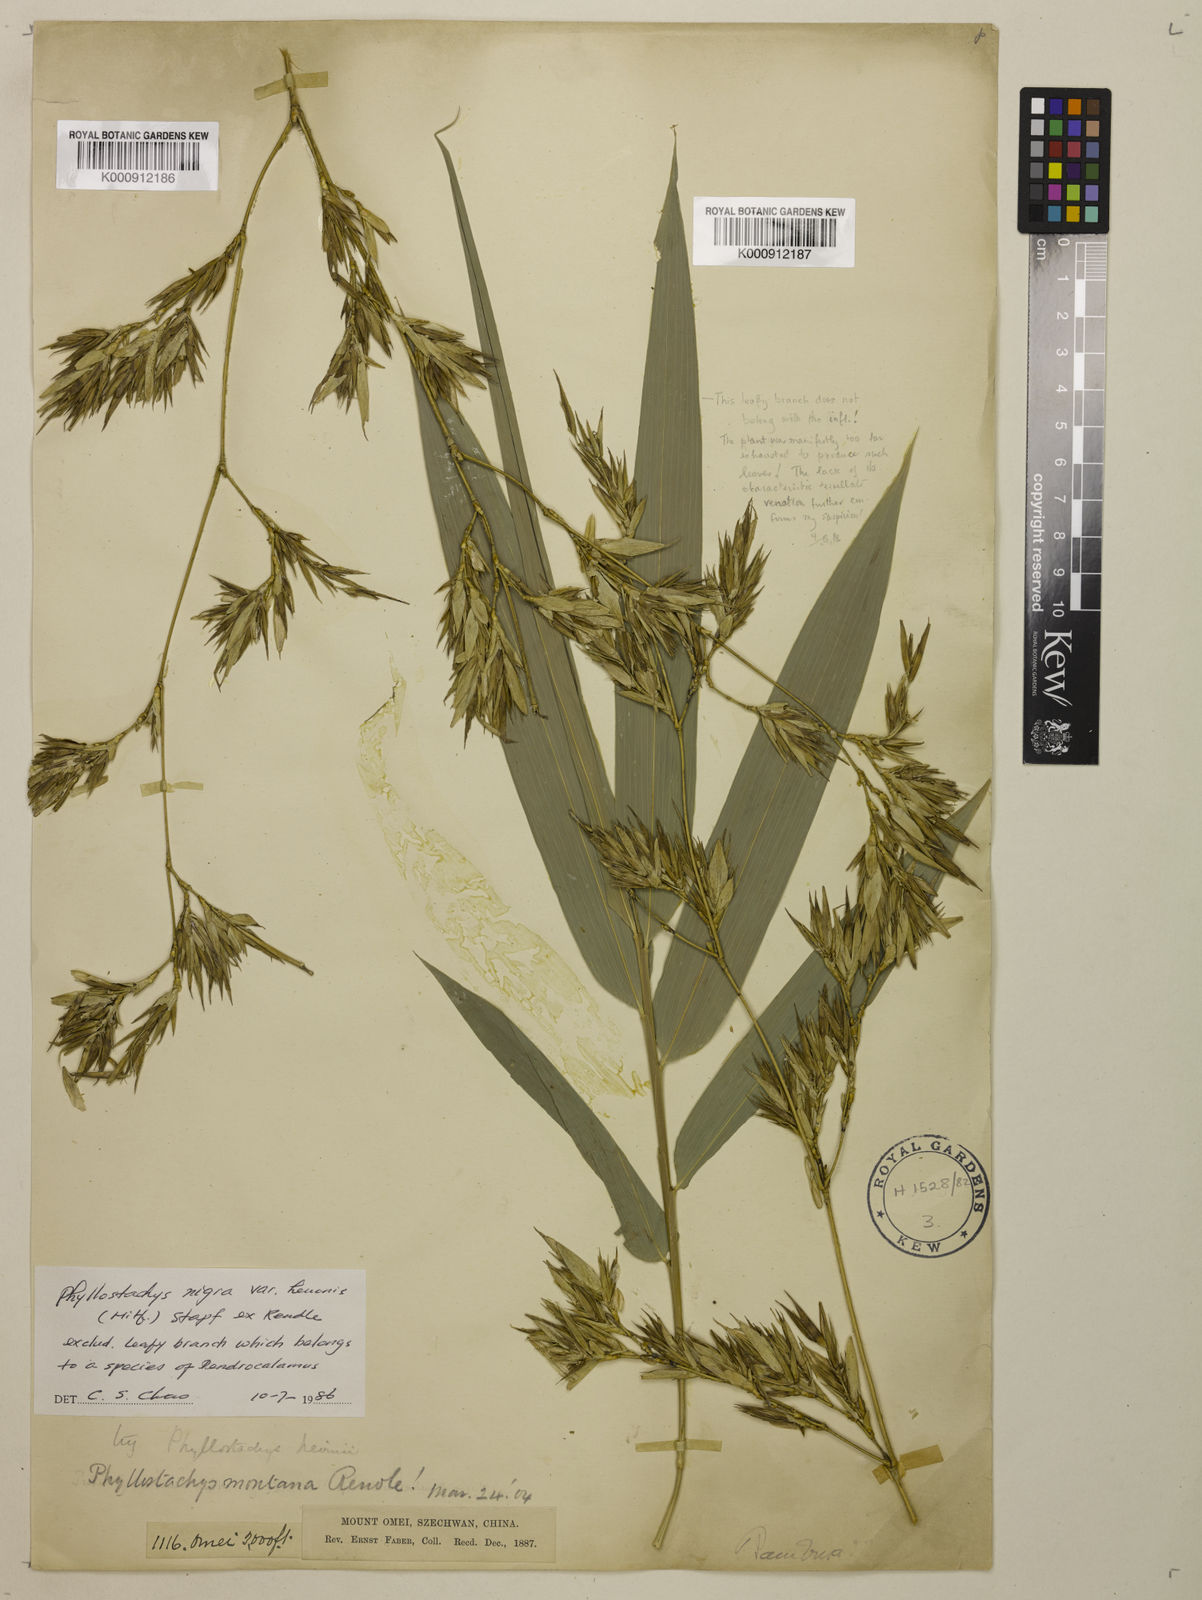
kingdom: Plantae
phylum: Tracheophyta
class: Liliopsida
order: Poales
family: Poaceae
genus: Phyllostachys
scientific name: Phyllostachys nigra
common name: Black bamboo
